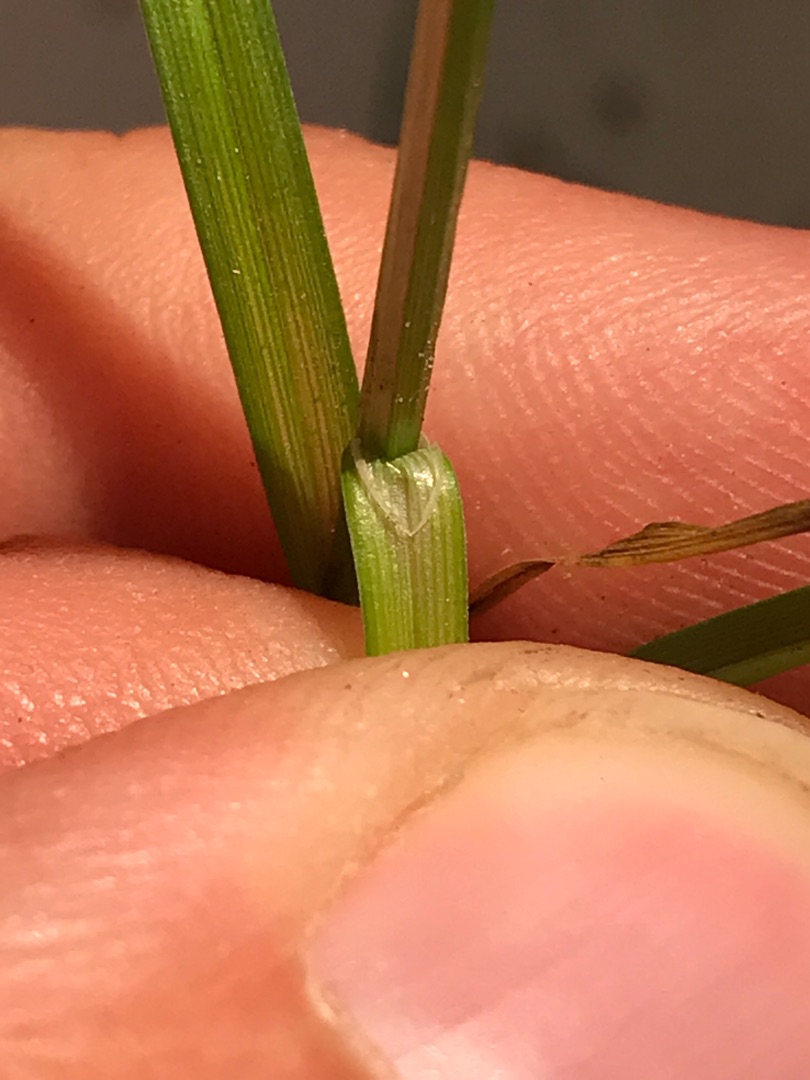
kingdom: Plantae
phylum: Tracheophyta
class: Liliopsida
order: Poales
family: Cyperaceae
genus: Carex
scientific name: Carex divulsa
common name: Mellembrudt star
